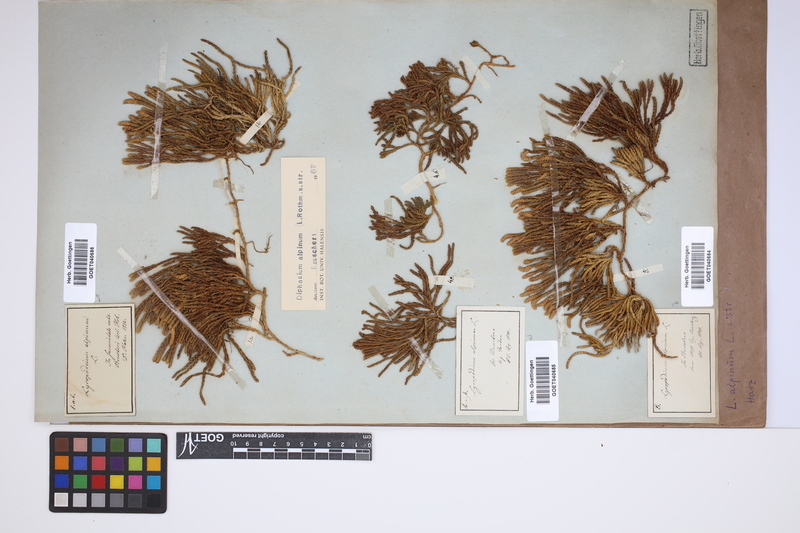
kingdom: Plantae
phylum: Tracheophyta
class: Lycopodiopsida
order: Lycopodiales
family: Lycopodiaceae
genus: Diphasiastrum
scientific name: Diphasiastrum alpinum
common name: Alpine clubmoss
